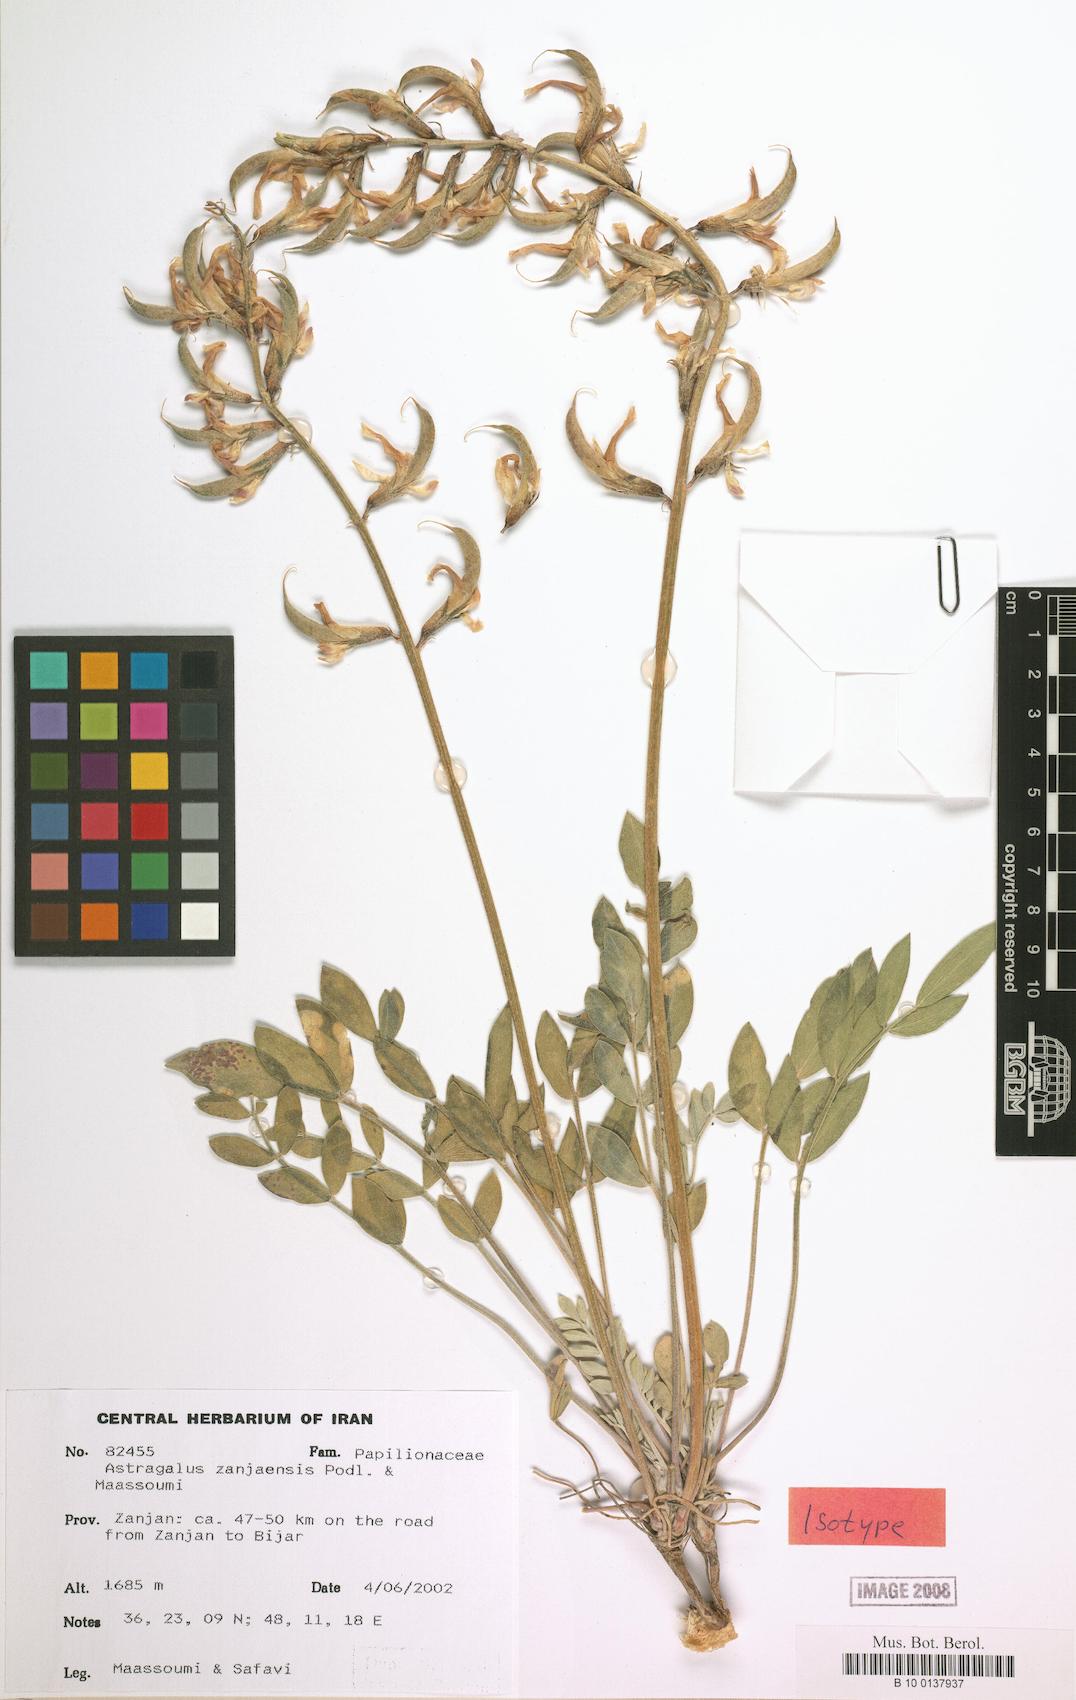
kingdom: Plantae
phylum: Tracheophyta
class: Magnoliopsida
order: Fabales
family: Fabaceae
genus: Astragalus
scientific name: Astragalus zanjanensis
